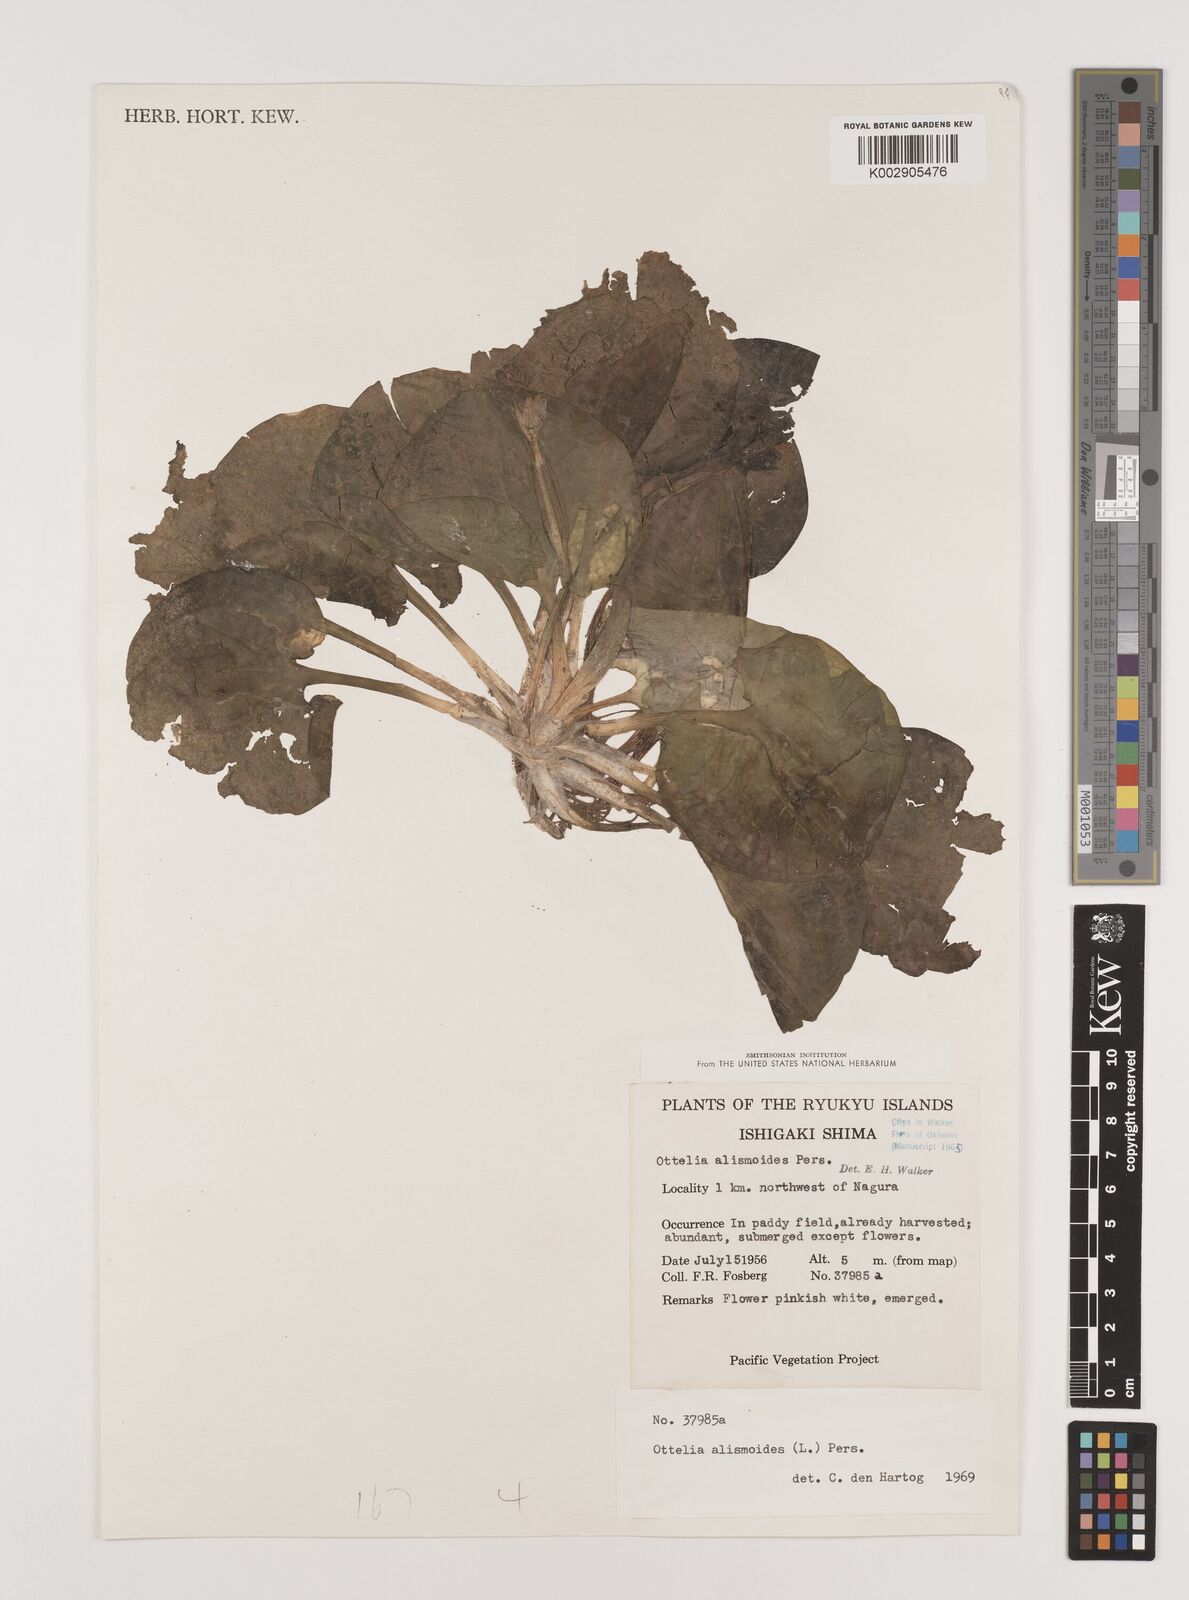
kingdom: Plantae
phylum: Tracheophyta
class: Liliopsida
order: Alismatales
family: Hydrocharitaceae
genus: Ottelia
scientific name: Ottelia alismoides
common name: Duck-lettuce
